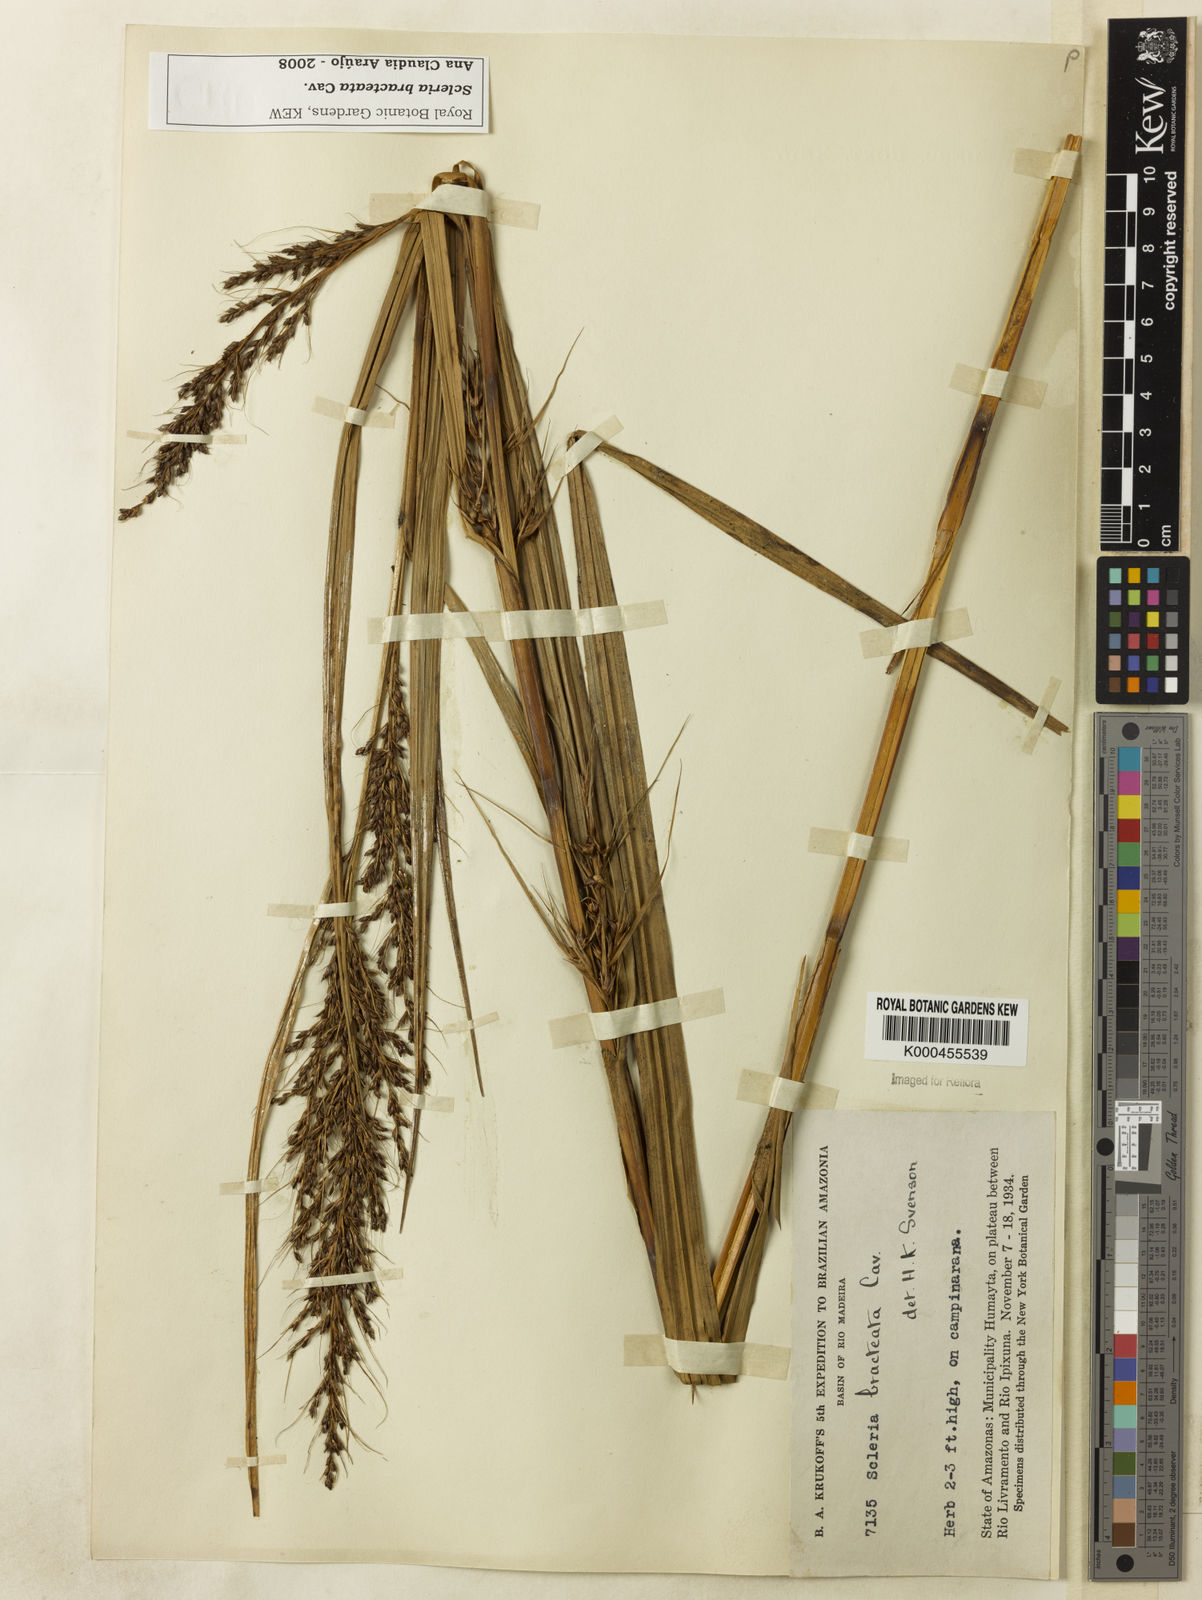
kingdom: Plantae
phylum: Tracheophyta
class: Liliopsida
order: Poales
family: Cyperaceae
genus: Scleria
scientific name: Scleria bracteata
